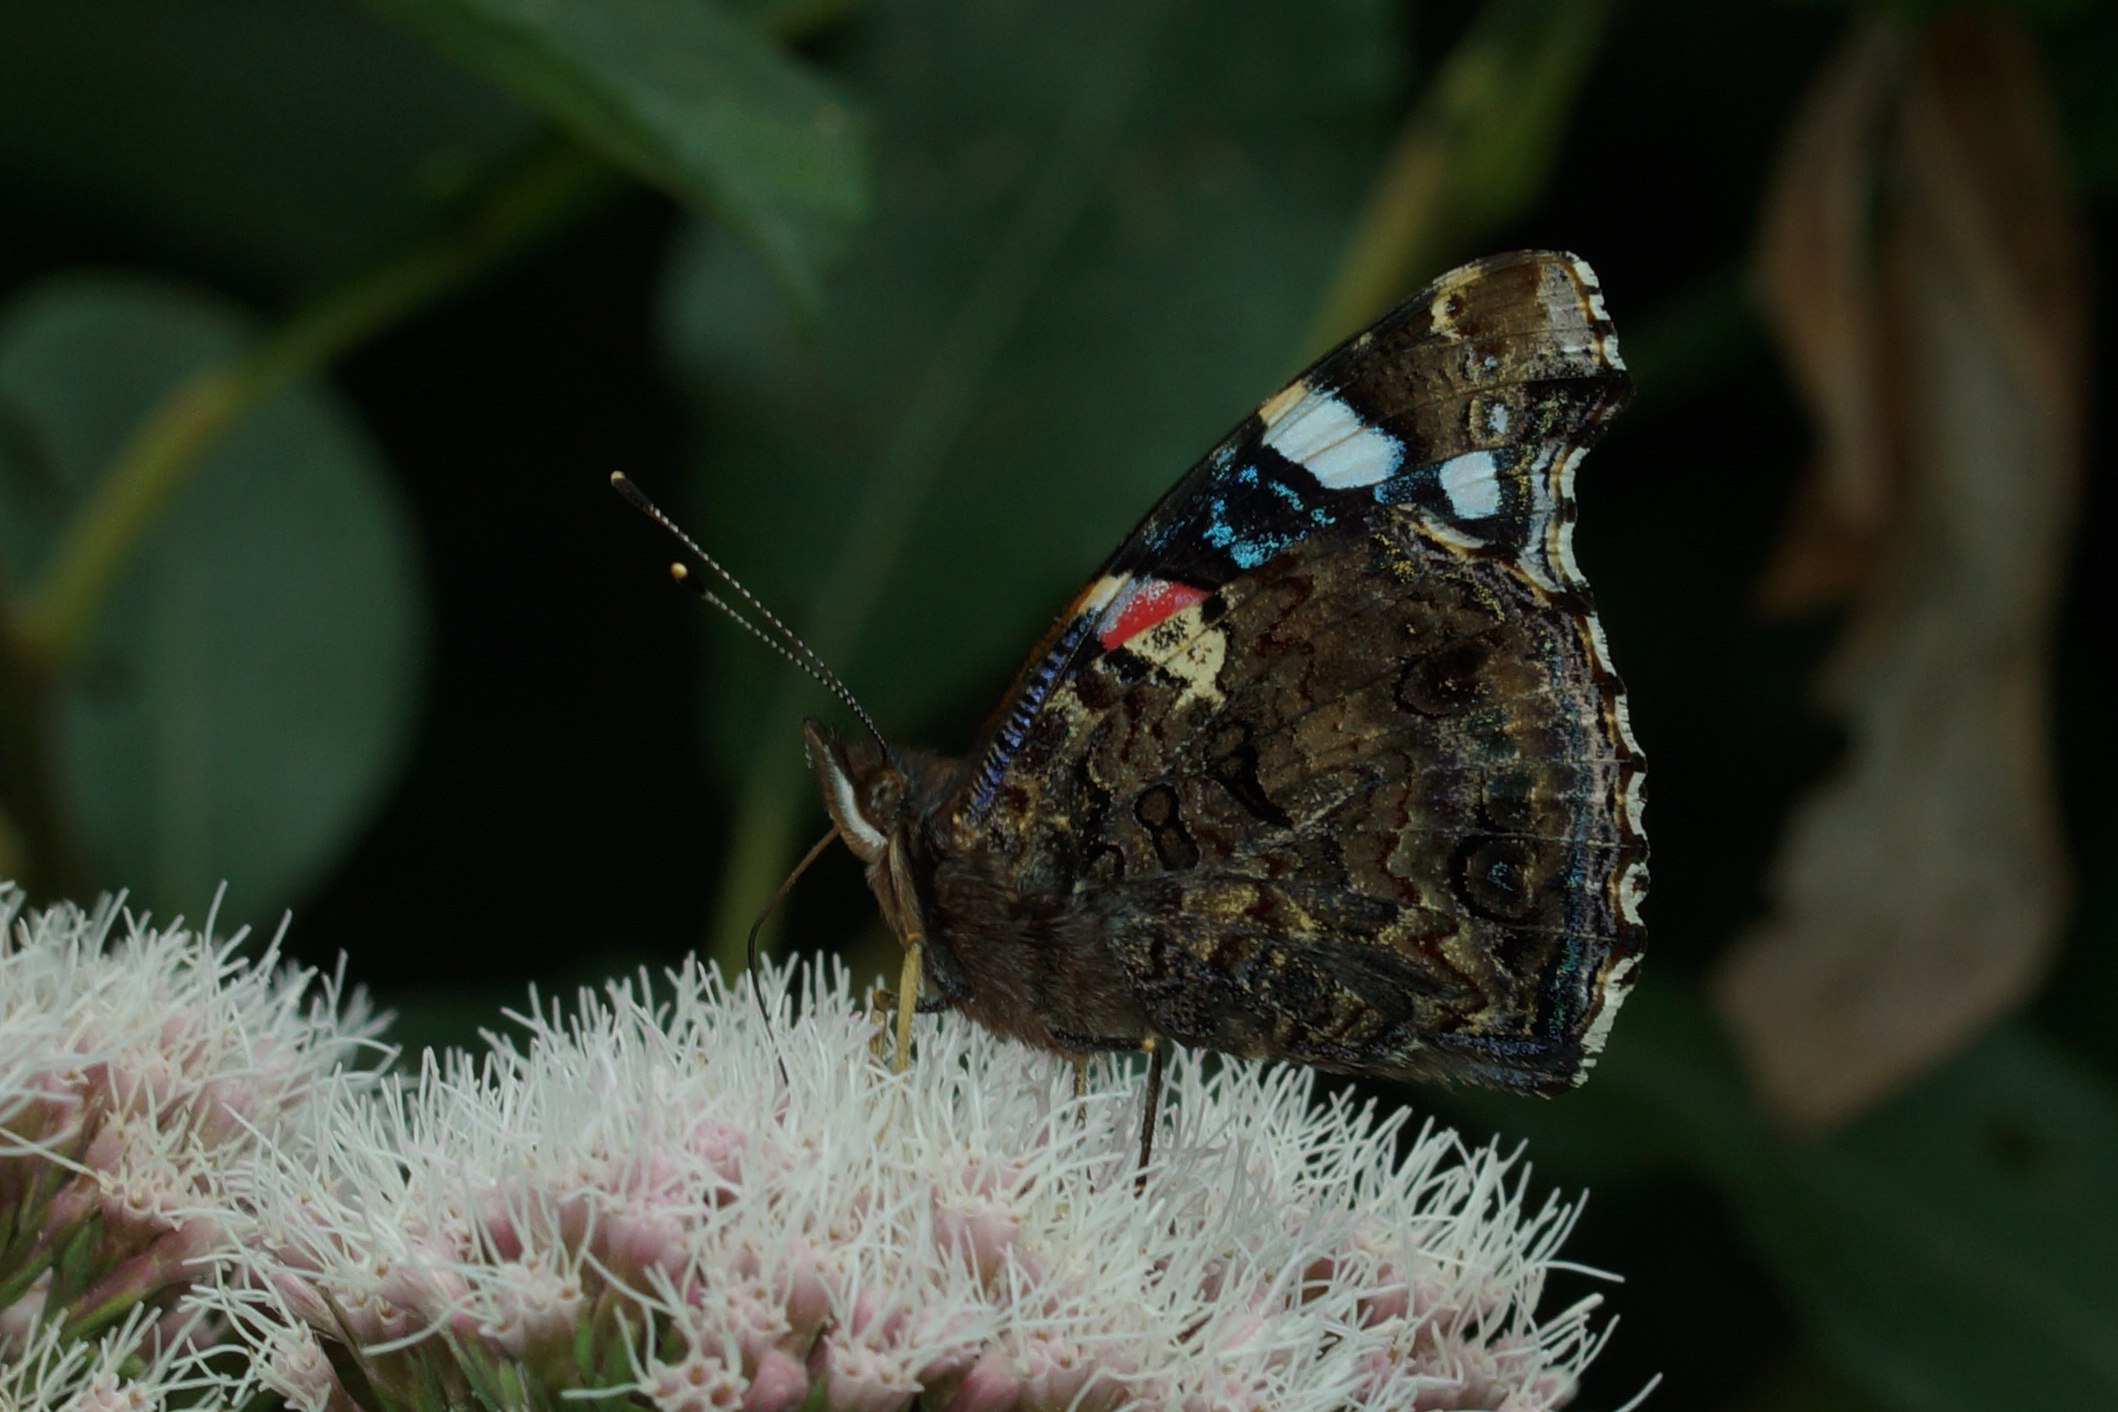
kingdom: Animalia
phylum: Arthropoda
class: Insecta
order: Lepidoptera
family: Nymphalidae
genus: Vanessa
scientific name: Vanessa atalanta
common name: Admiral
